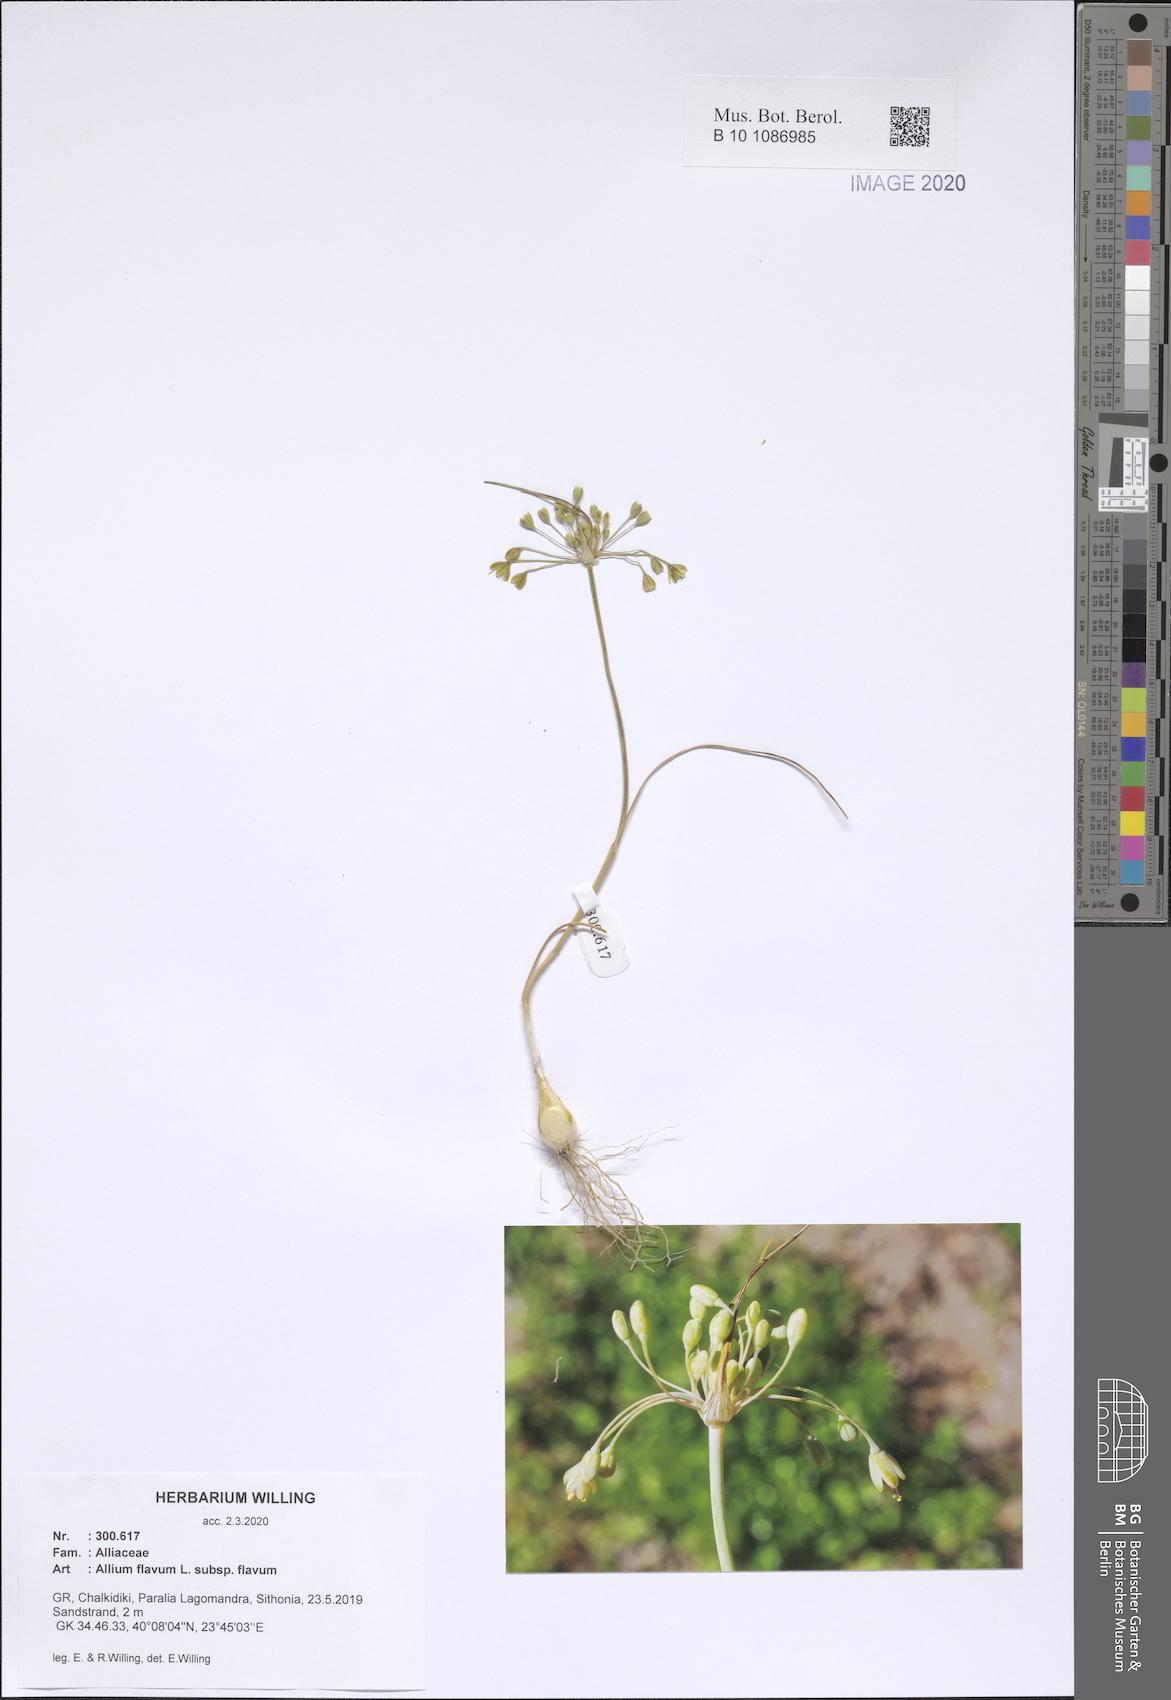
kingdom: Plantae
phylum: Tracheophyta
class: Liliopsida
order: Asparagales
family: Amaryllidaceae
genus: Allium
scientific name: Allium flavum
